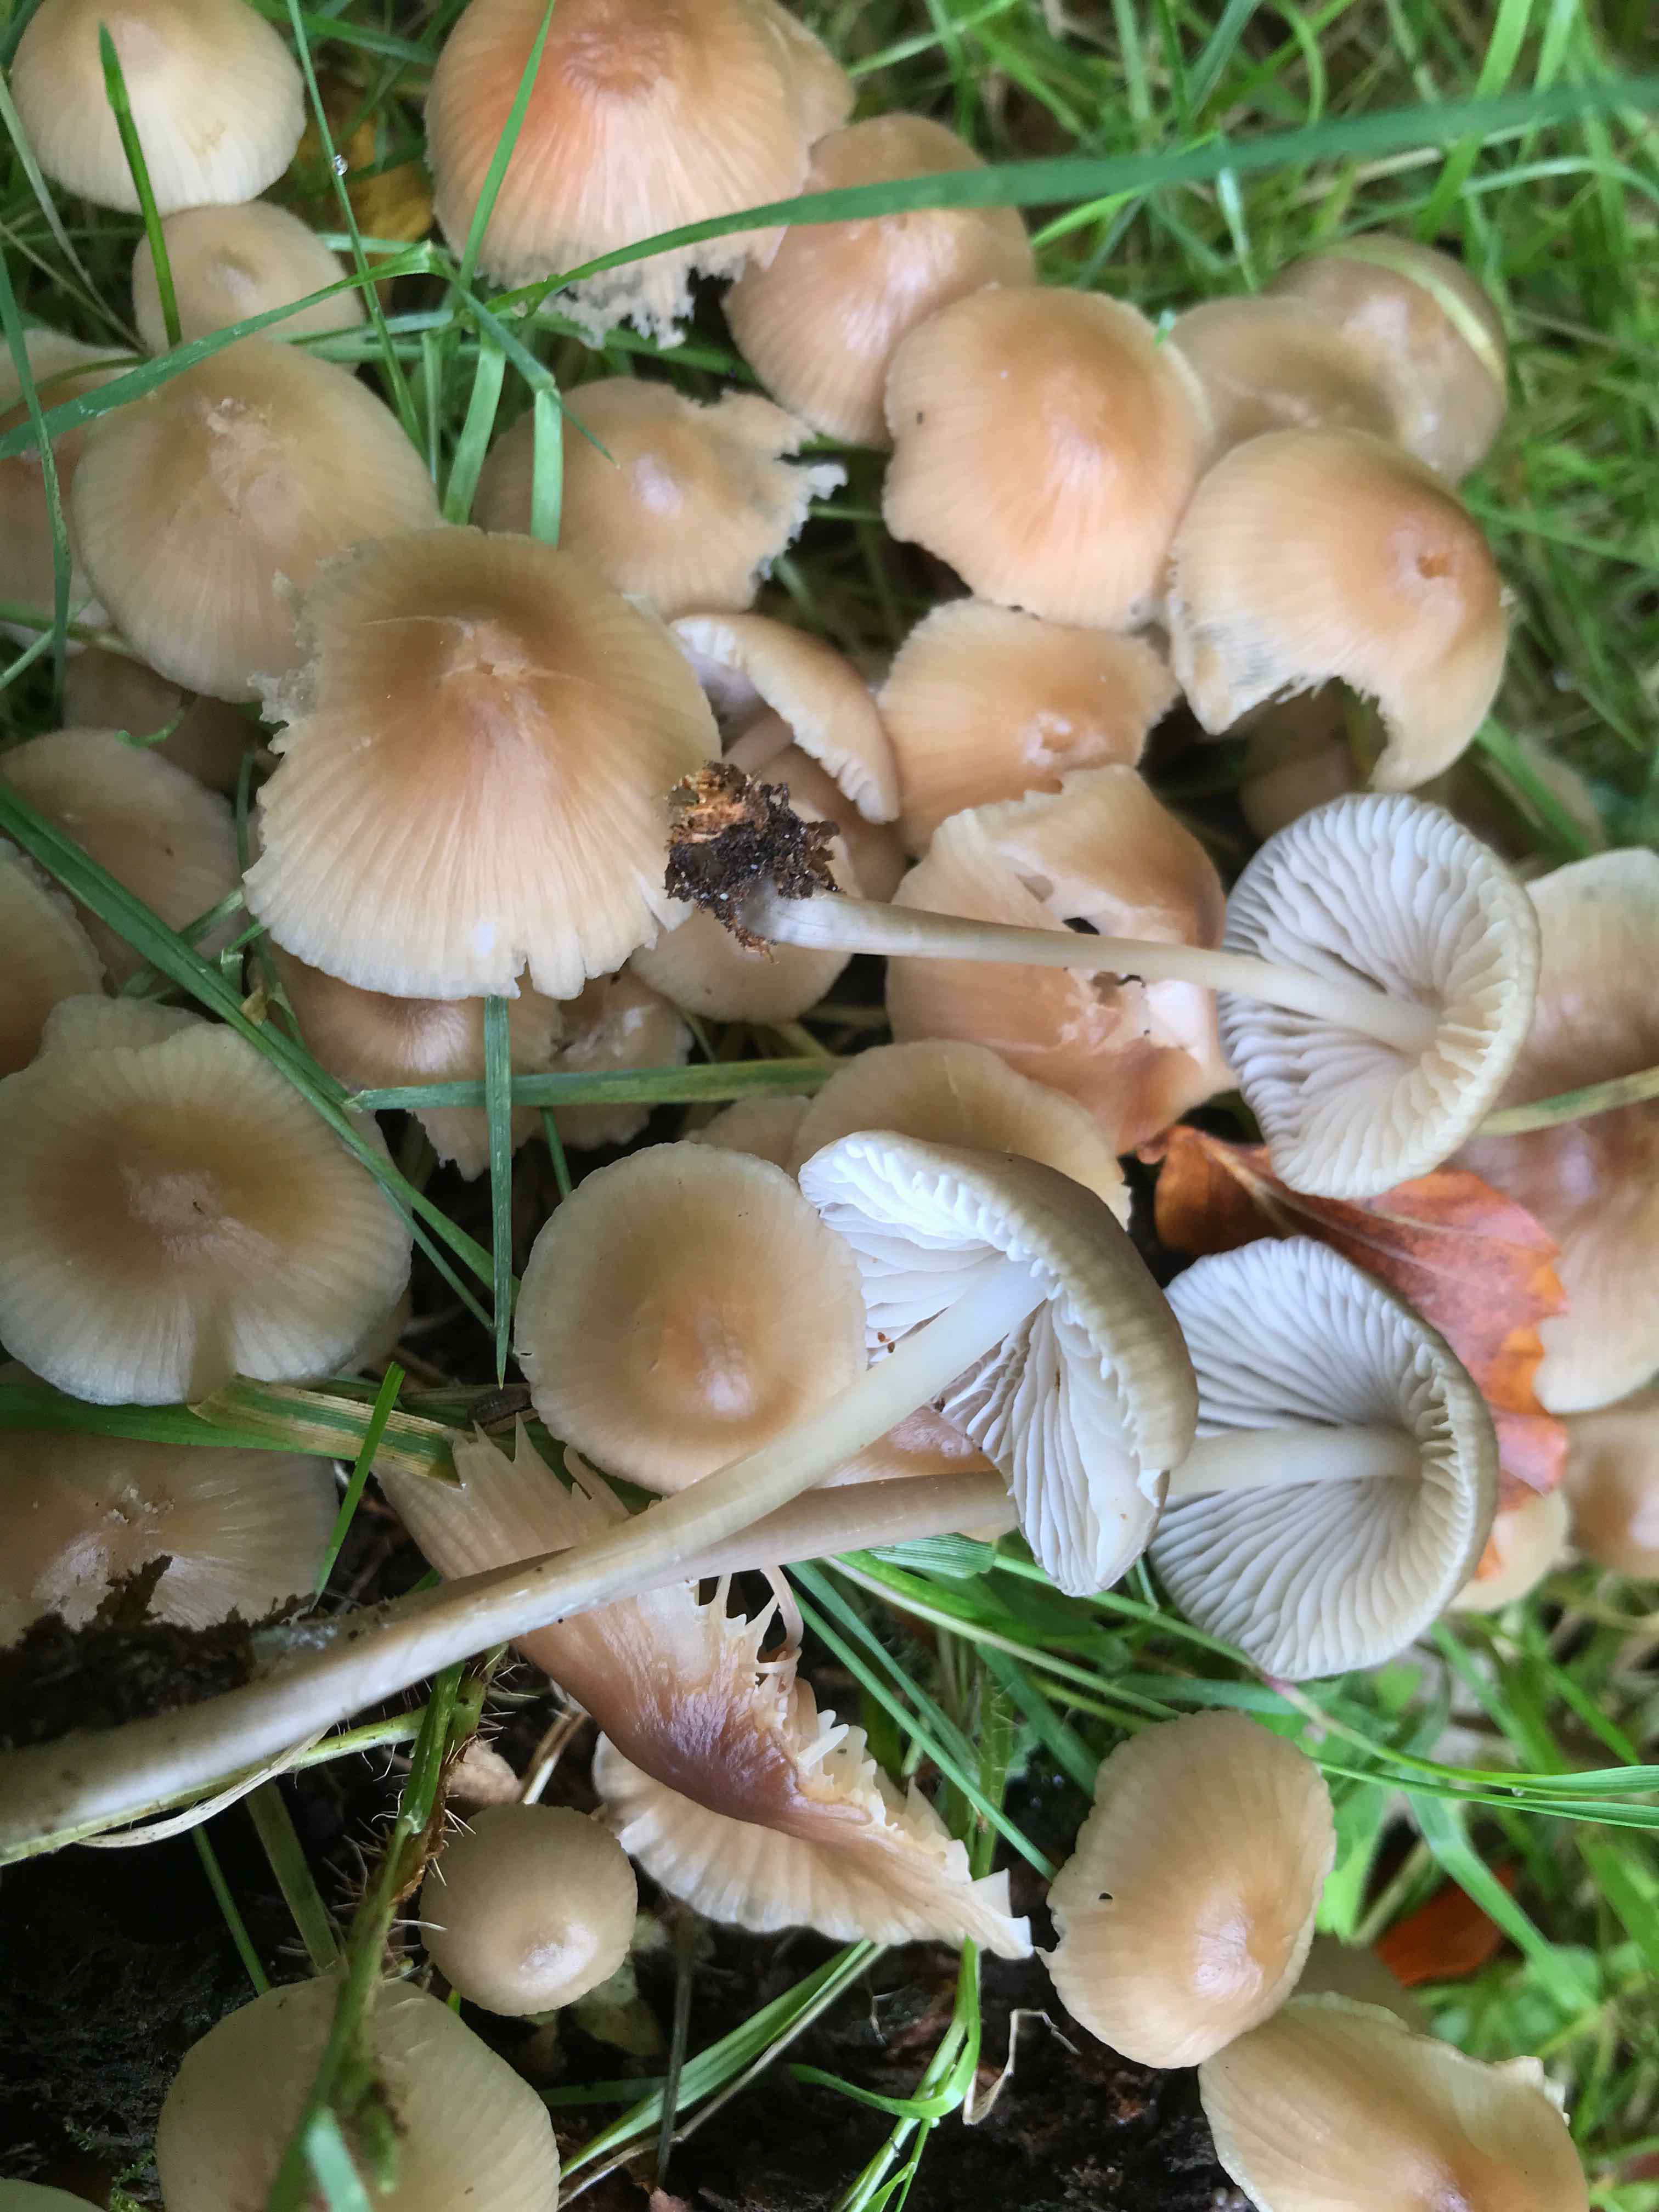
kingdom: Fungi
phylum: Basidiomycota
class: Agaricomycetes
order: Agaricales
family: Mycenaceae
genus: Mycena
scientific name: Mycena
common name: huesvamp
